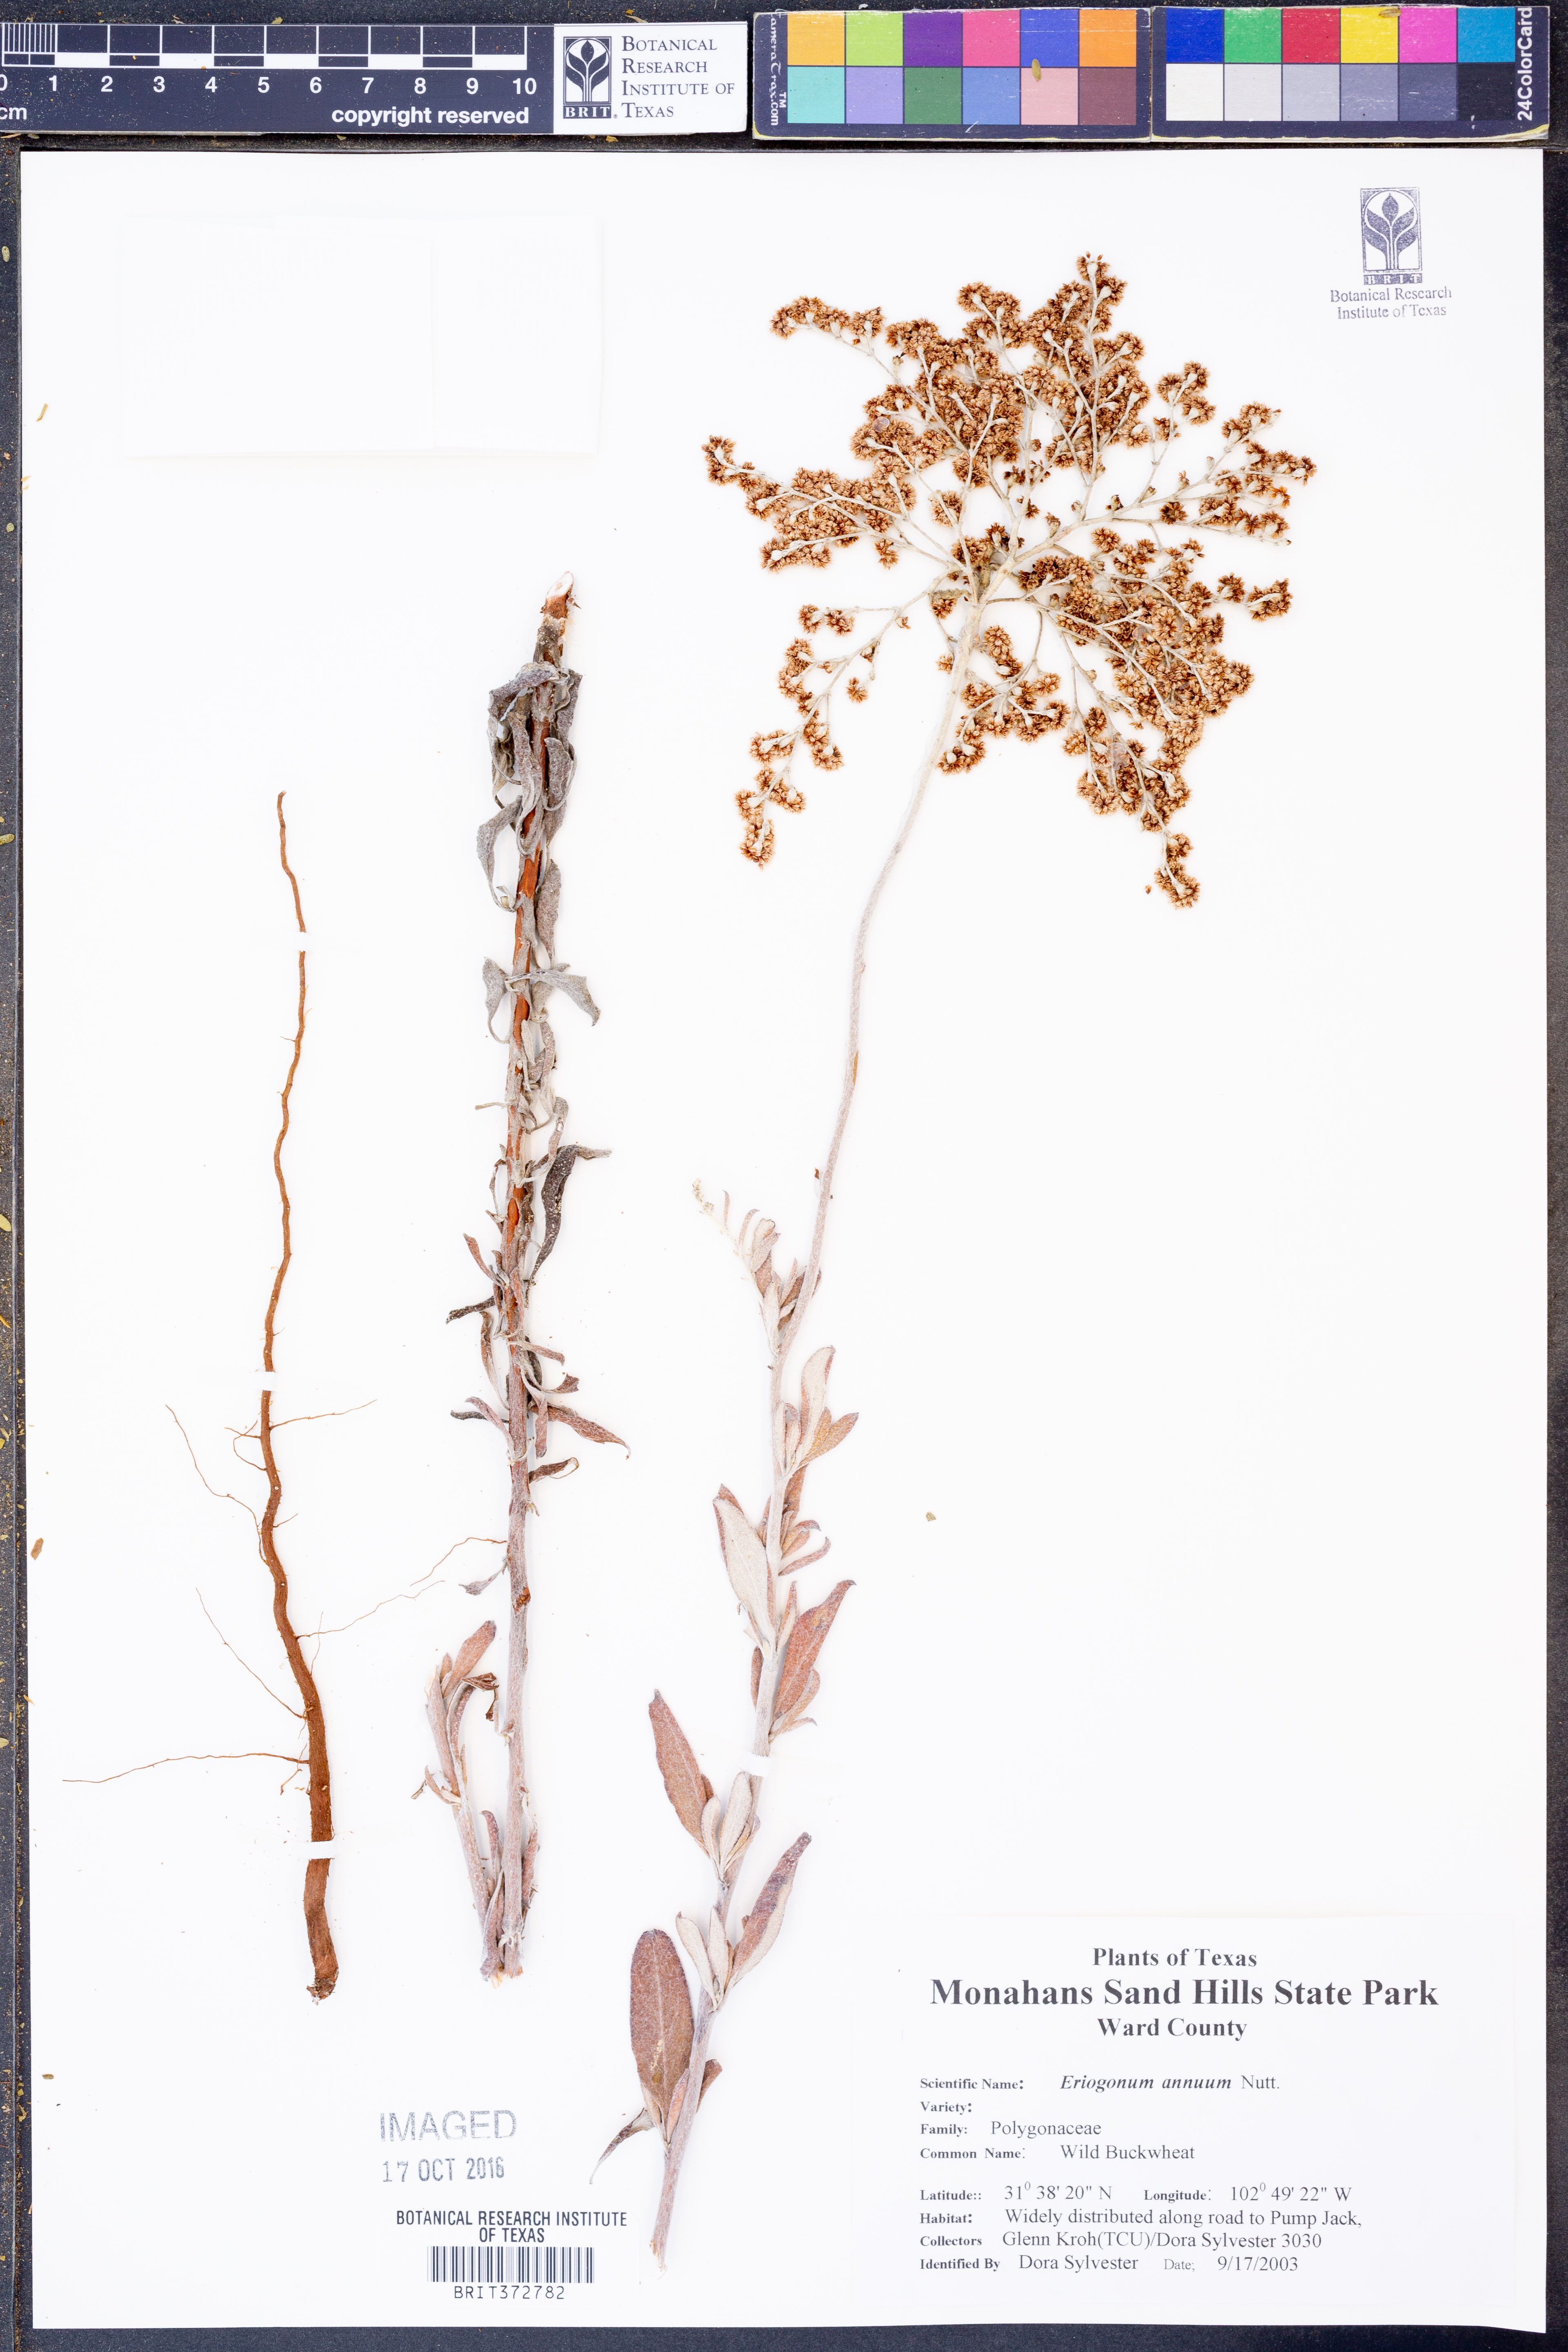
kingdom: Plantae
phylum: Tracheophyta
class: Magnoliopsida
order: Caryophyllales
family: Polygonaceae
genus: Eriogonum
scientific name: Eriogonum annuum
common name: Annual wild buckwheat
